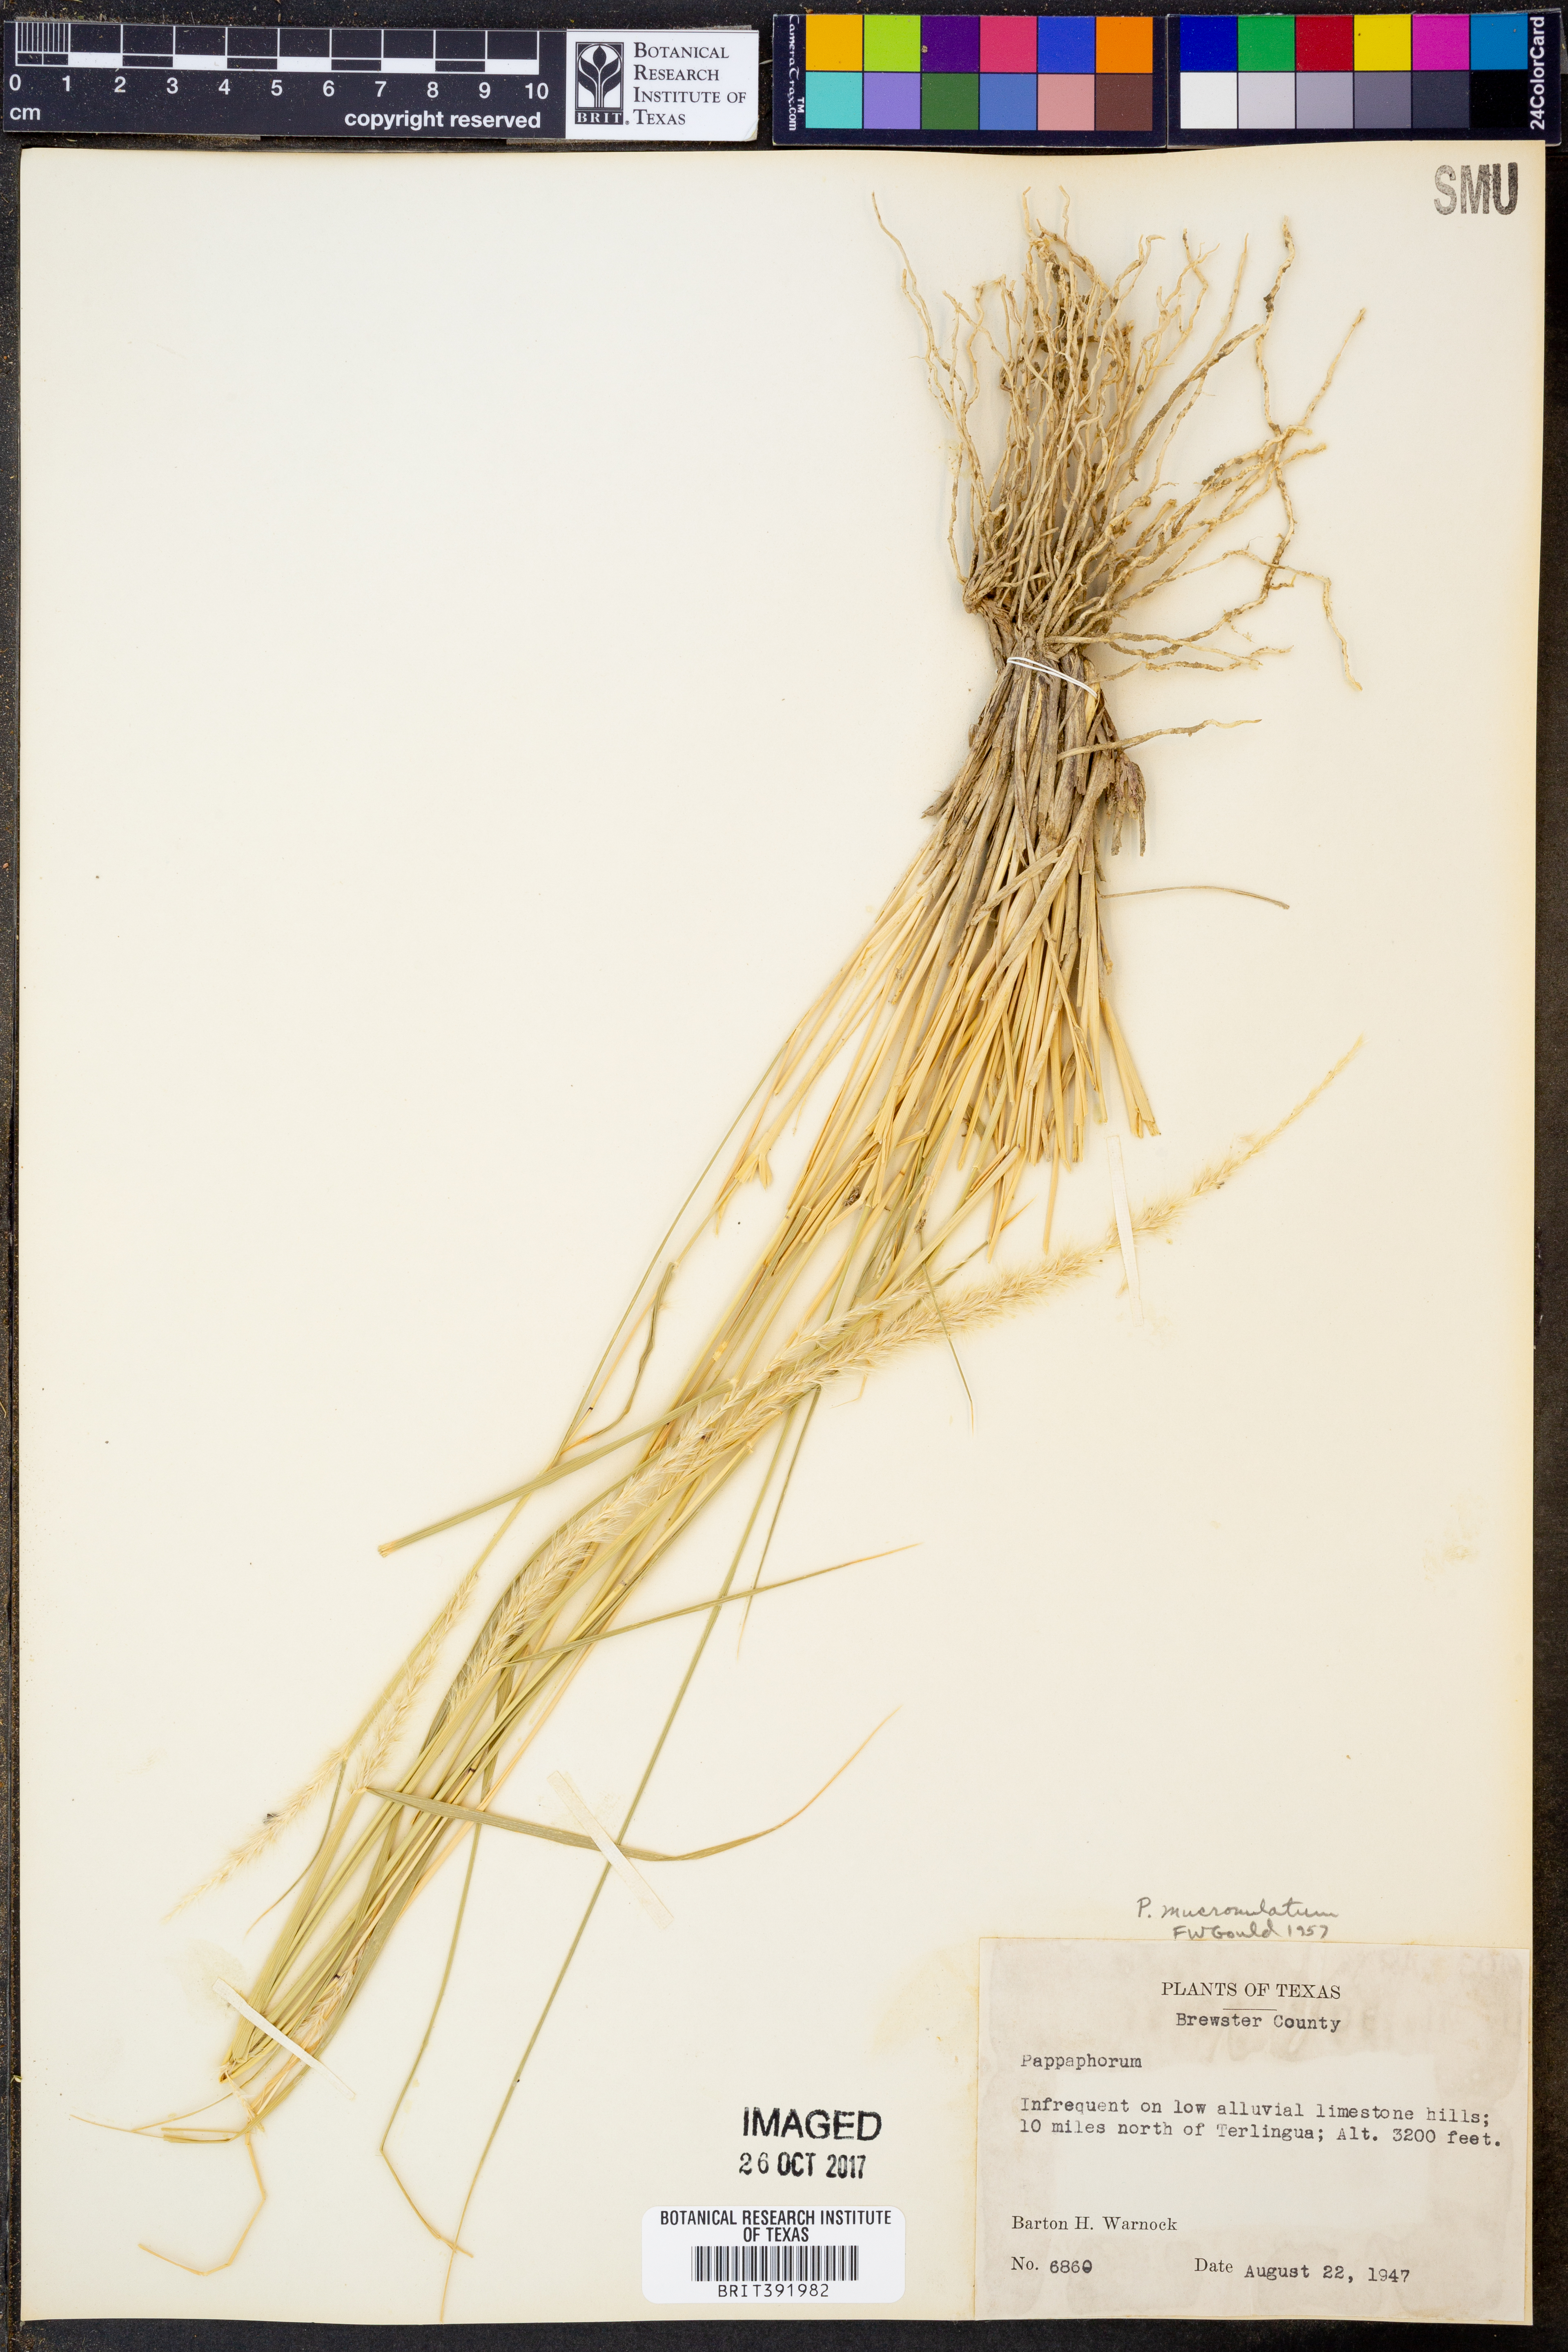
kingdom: Plantae
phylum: Tracheophyta
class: Liliopsida
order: Poales
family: Poaceae
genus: Pappophorum
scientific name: Pappophorum mucronulatum
